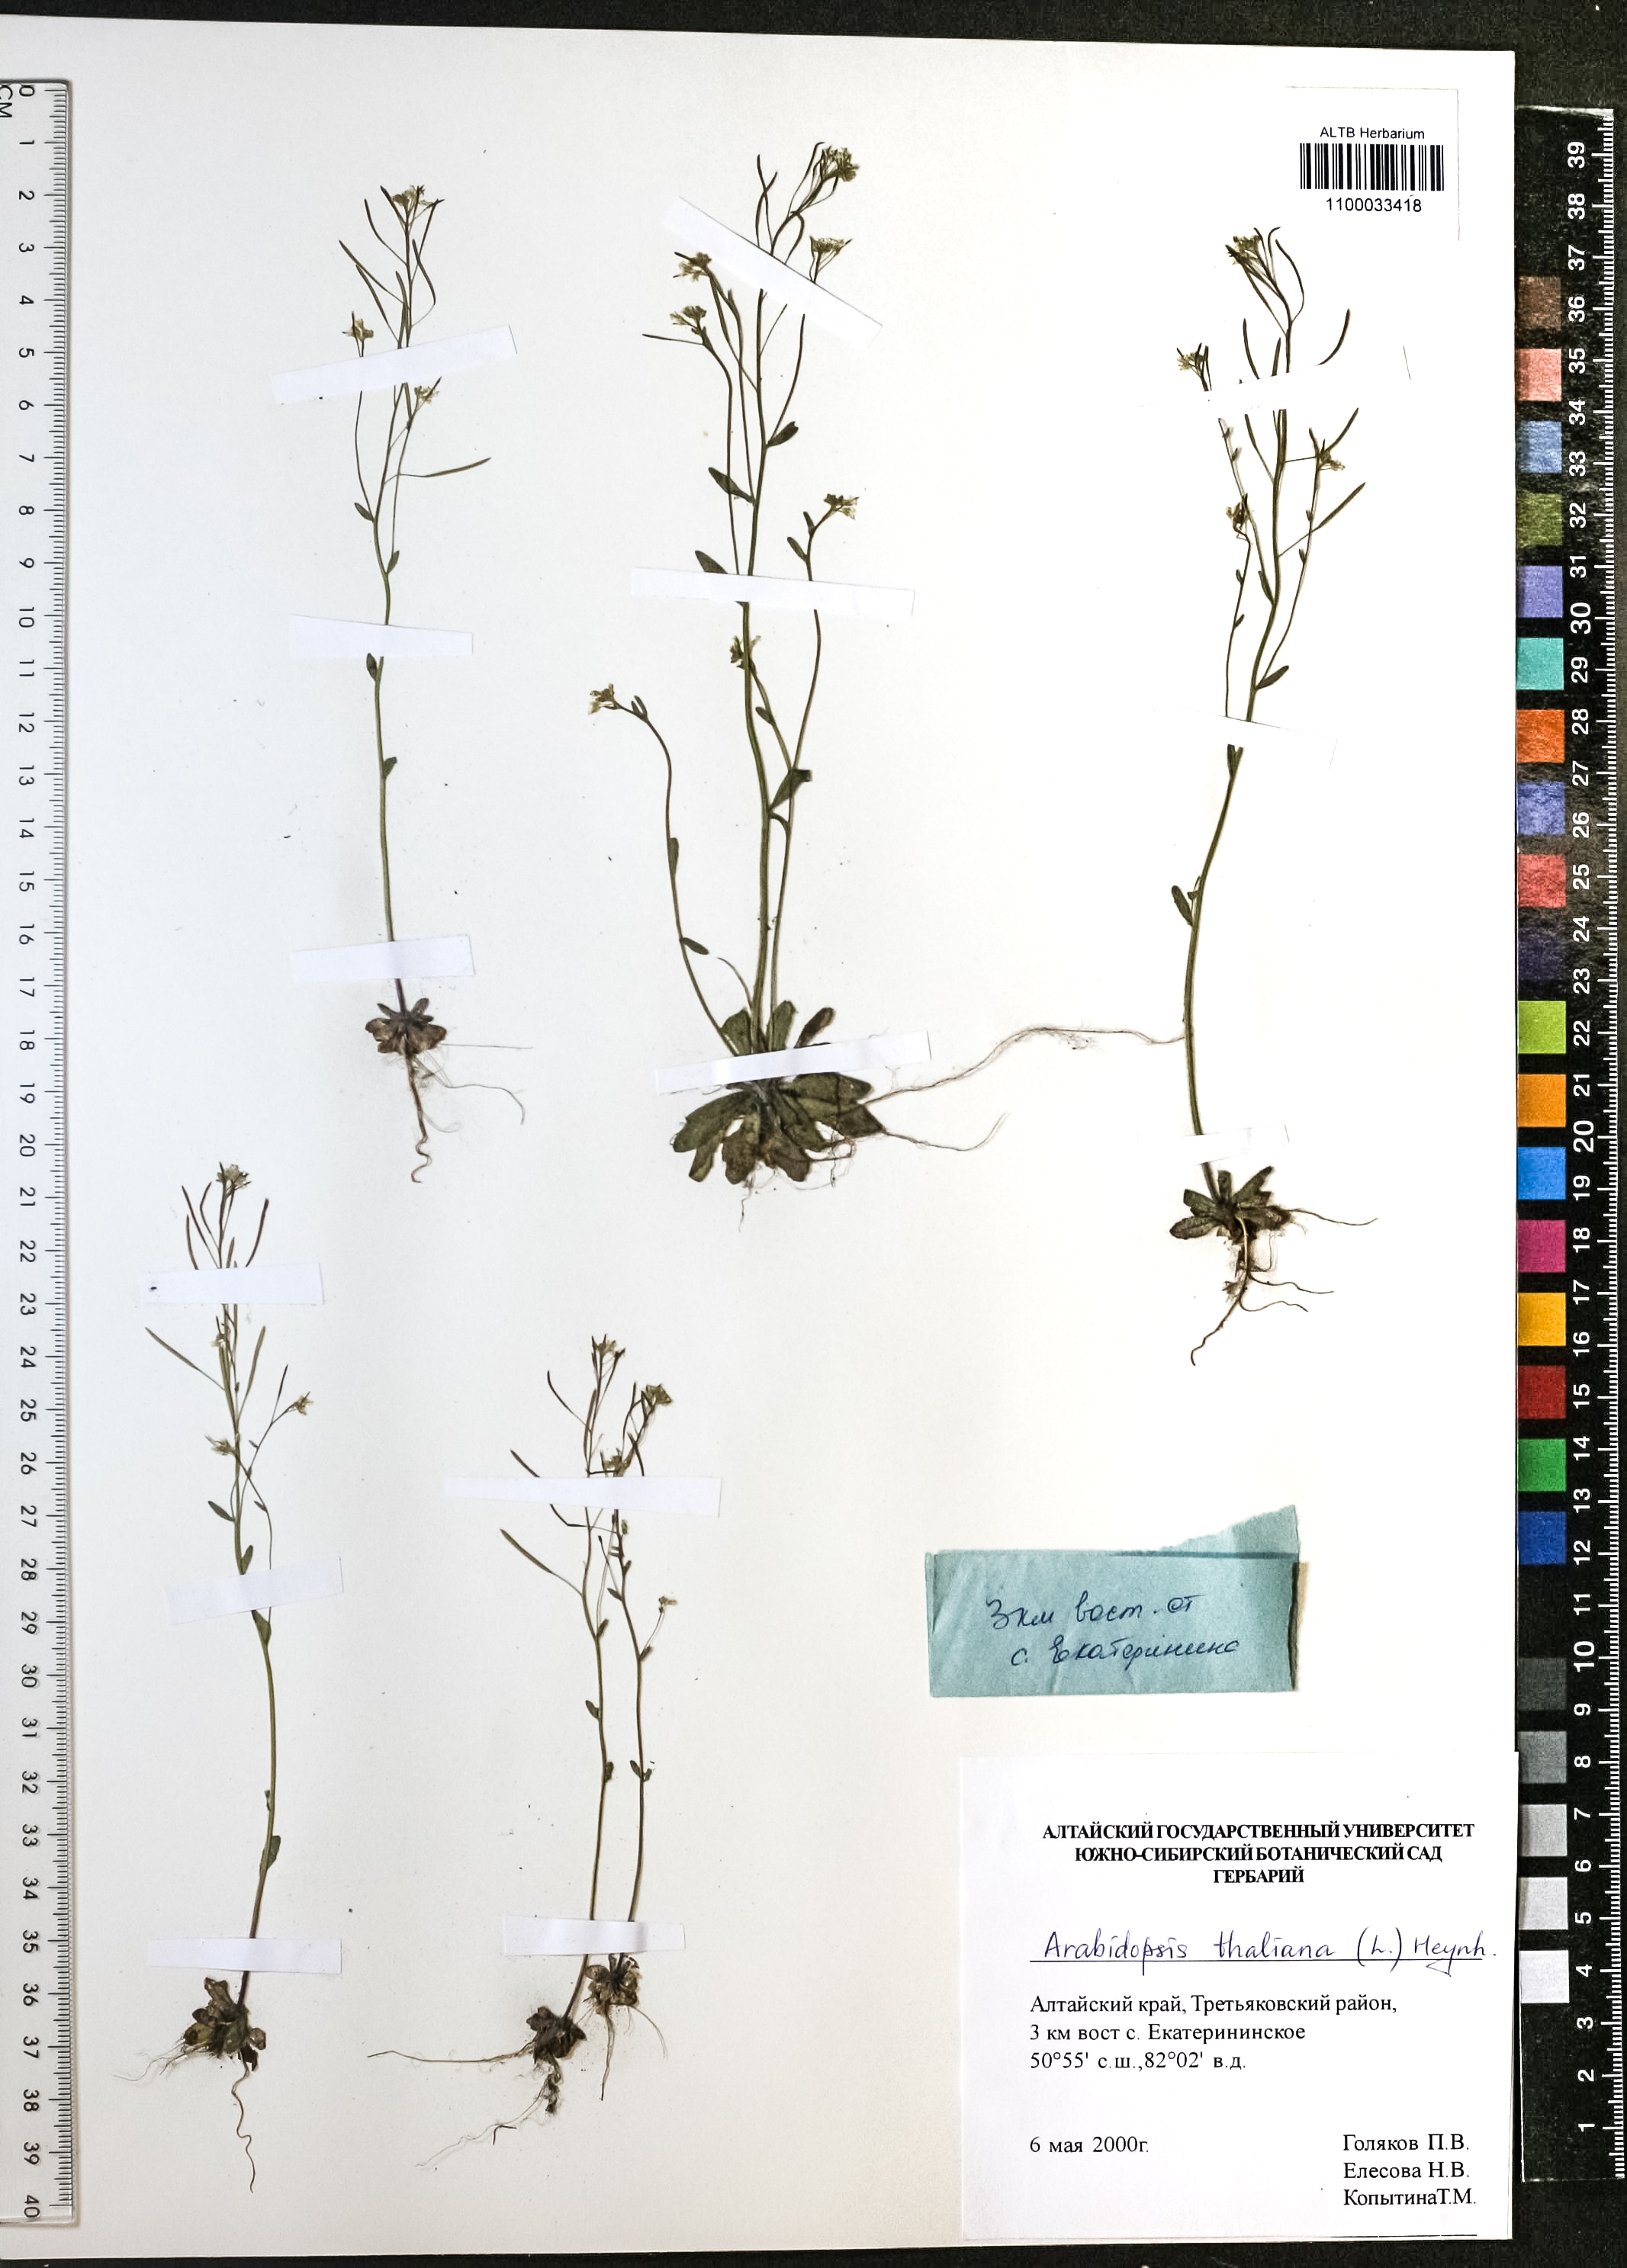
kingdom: Plantae
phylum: Tracheophyta
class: Magnoliopsida
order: Brassicales
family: Brassicaceae
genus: Arabidopsis
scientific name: Arabidopsis thaliana
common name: Thale cress
